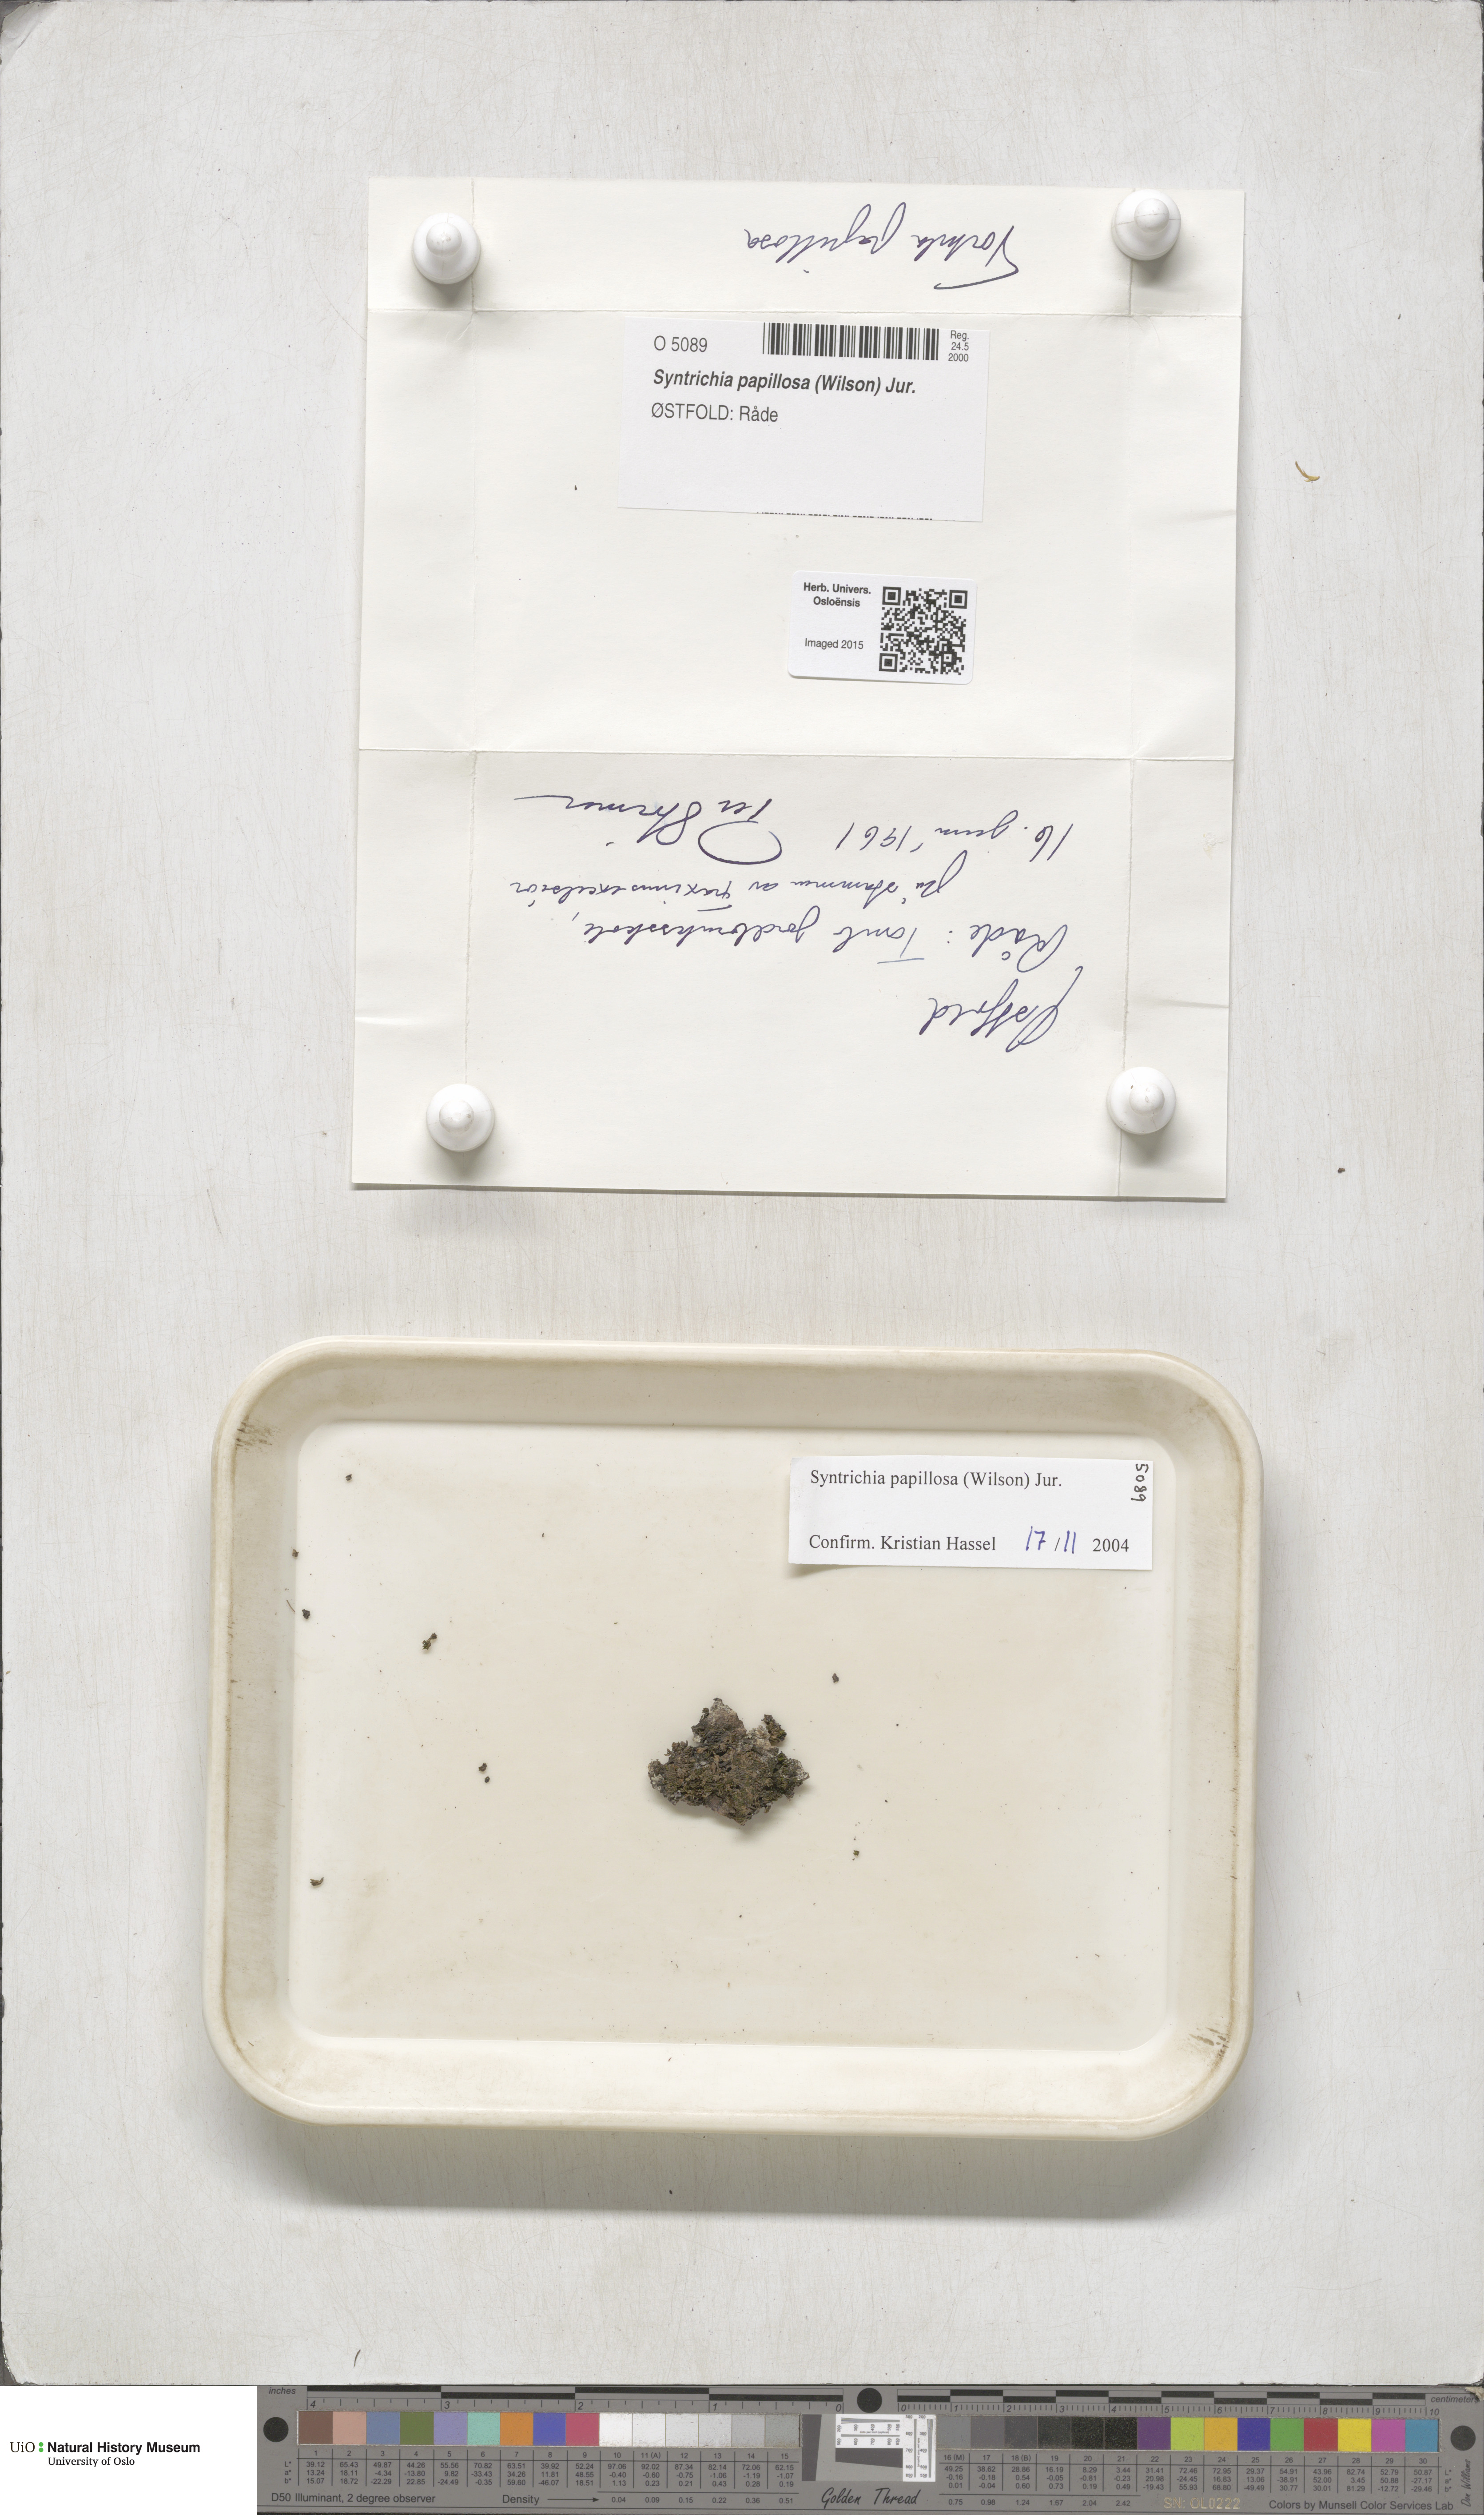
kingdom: Plantae
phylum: Bryophyta
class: Bryopsida
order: Pottiales
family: Pottiaceae
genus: Syntrichia
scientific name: Syntrichia papillosa
